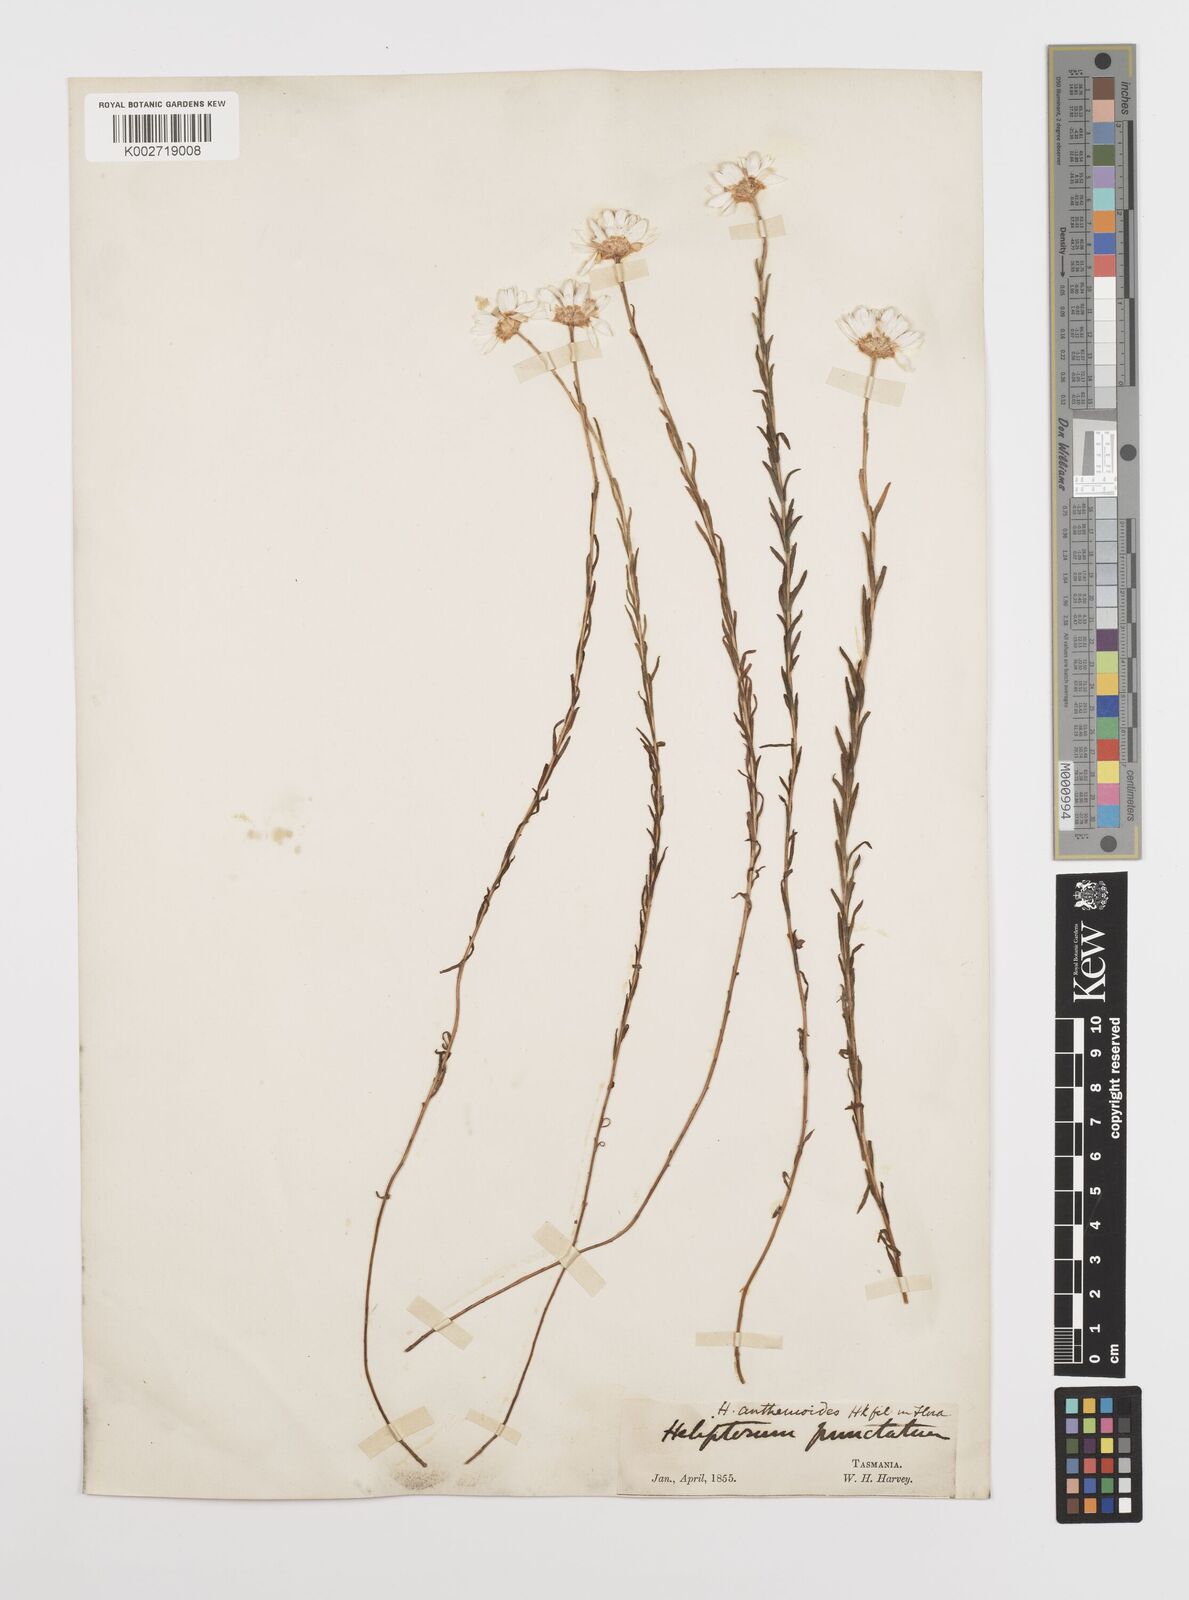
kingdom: Plantae
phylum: Tracheophyta
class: Magnoliopsida
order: Asterales
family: Asteraceae
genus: Rhodanthe
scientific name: Rhodanthe anthemoides
